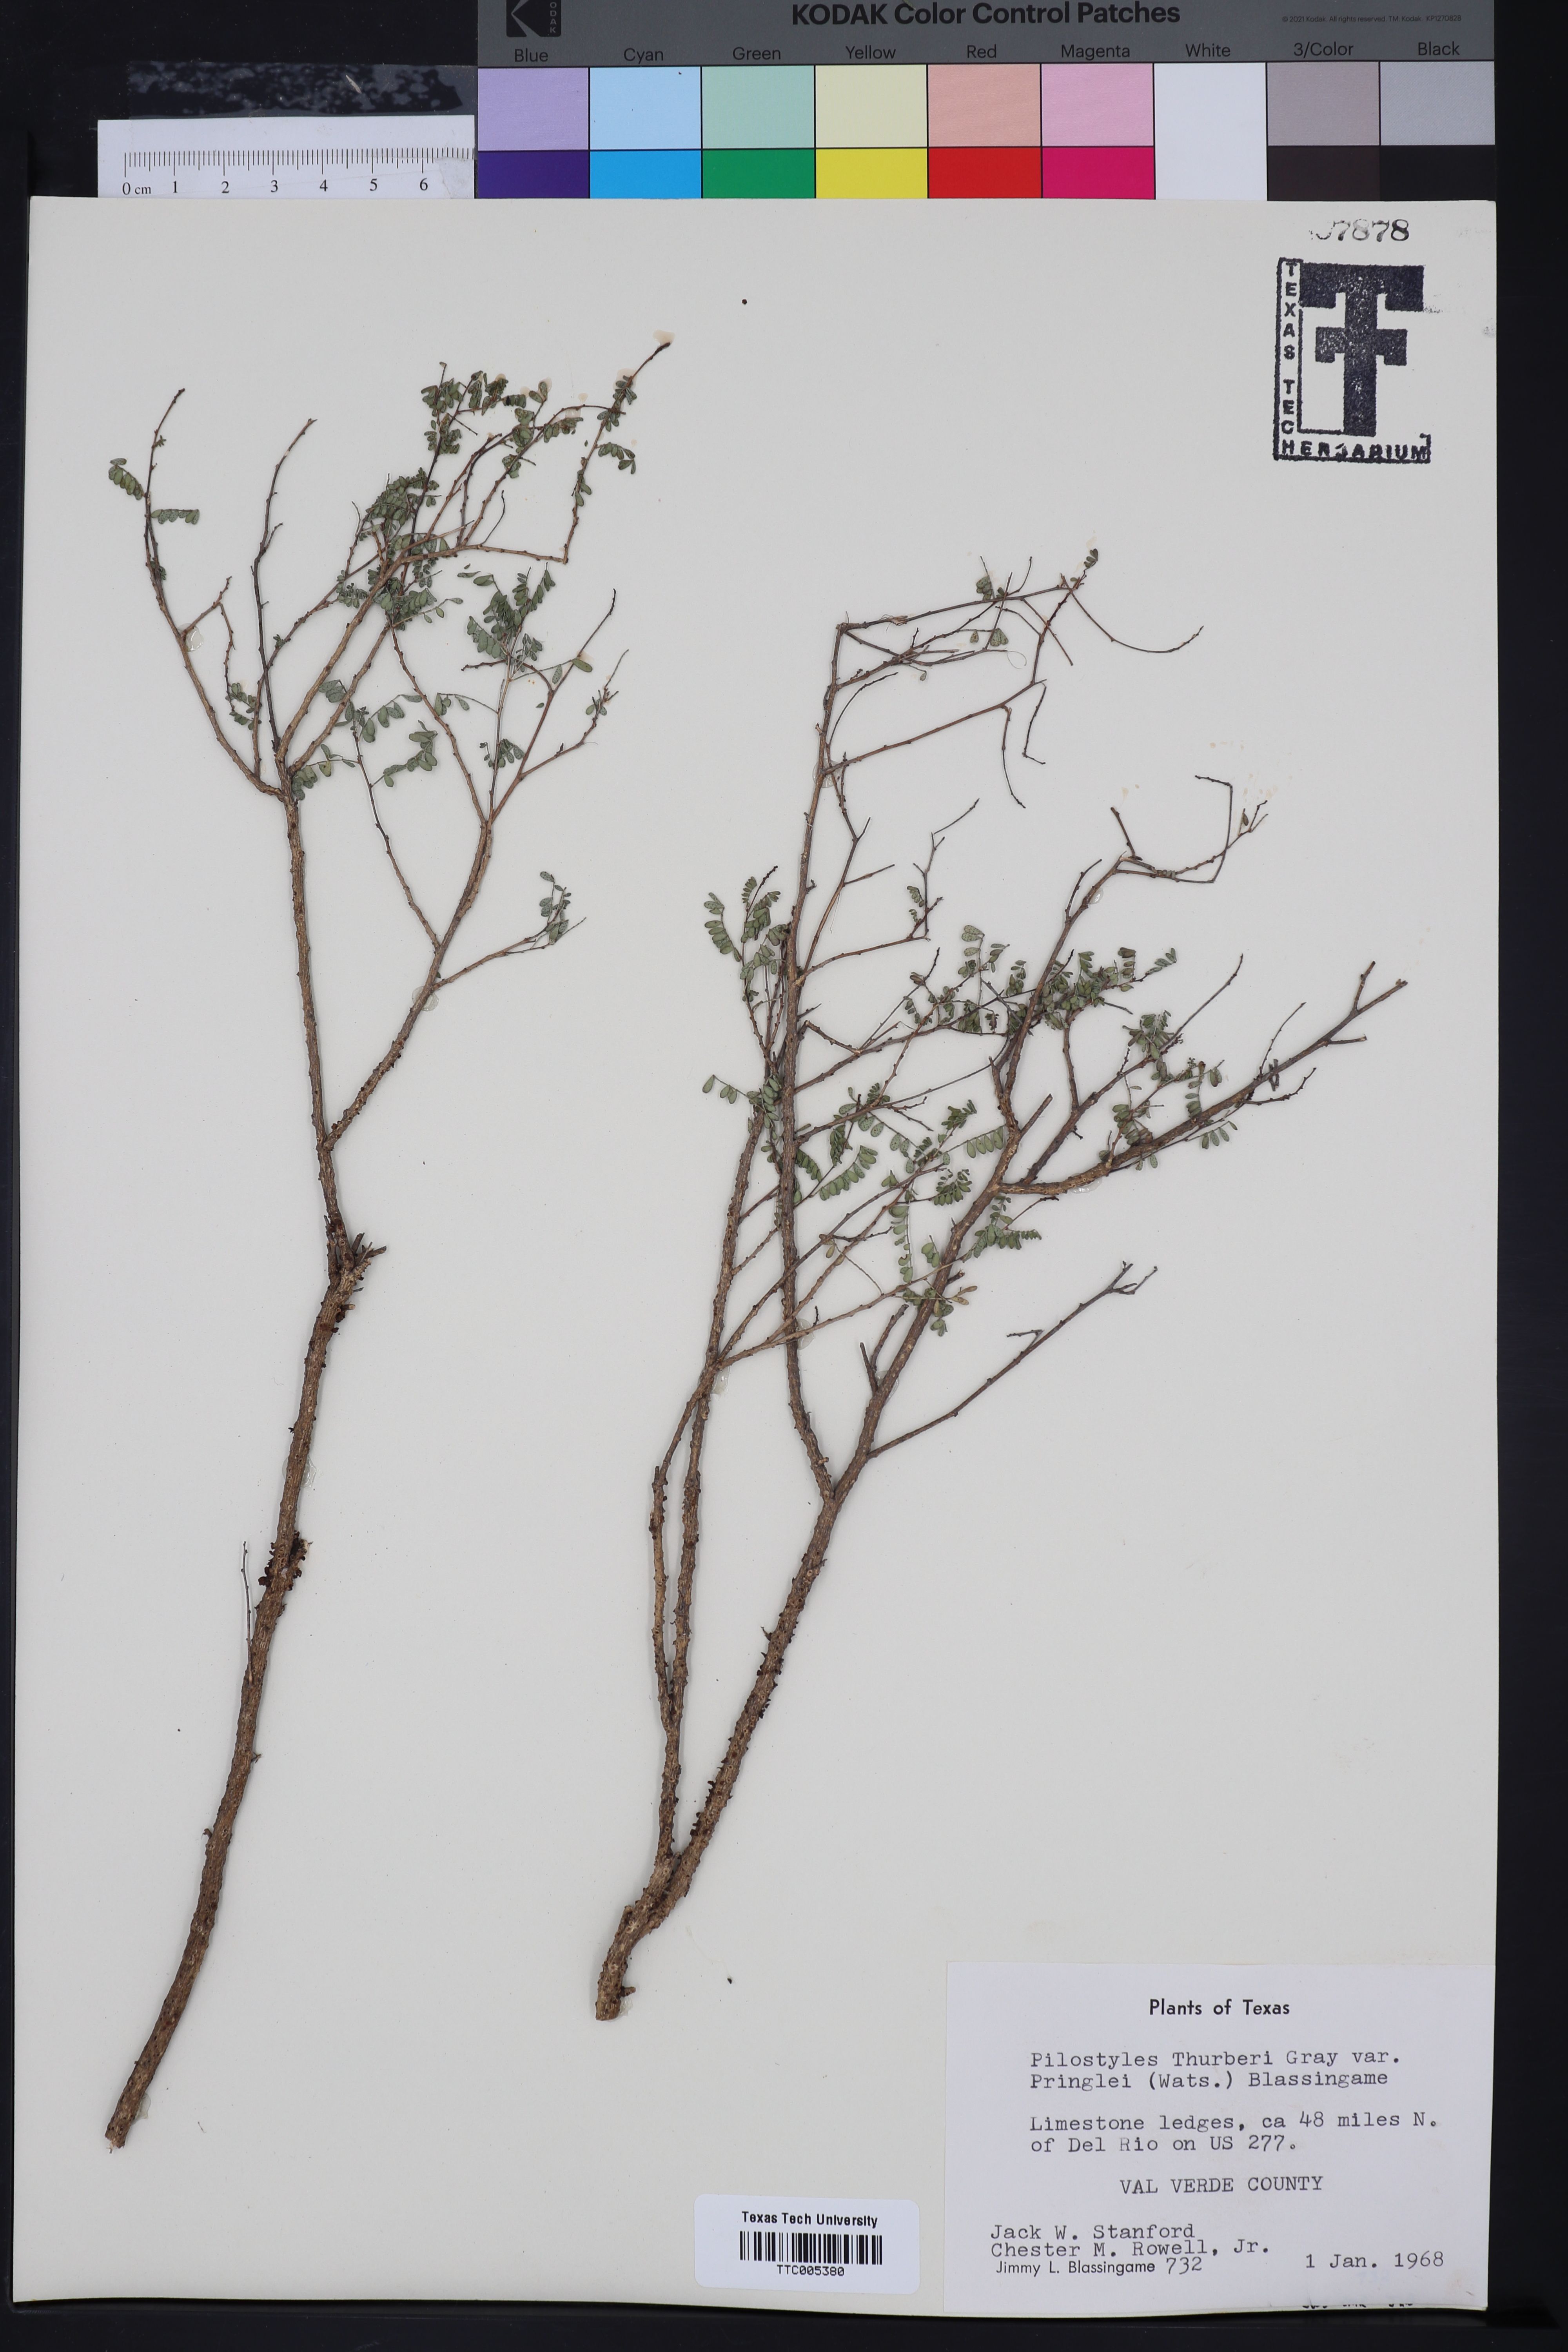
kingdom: Plantae
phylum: Tracheophyta
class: Magnoliopsida
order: Cucurbitales
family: Apodanthaceae
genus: Pilostyles
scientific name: Pilostyles thurberi
